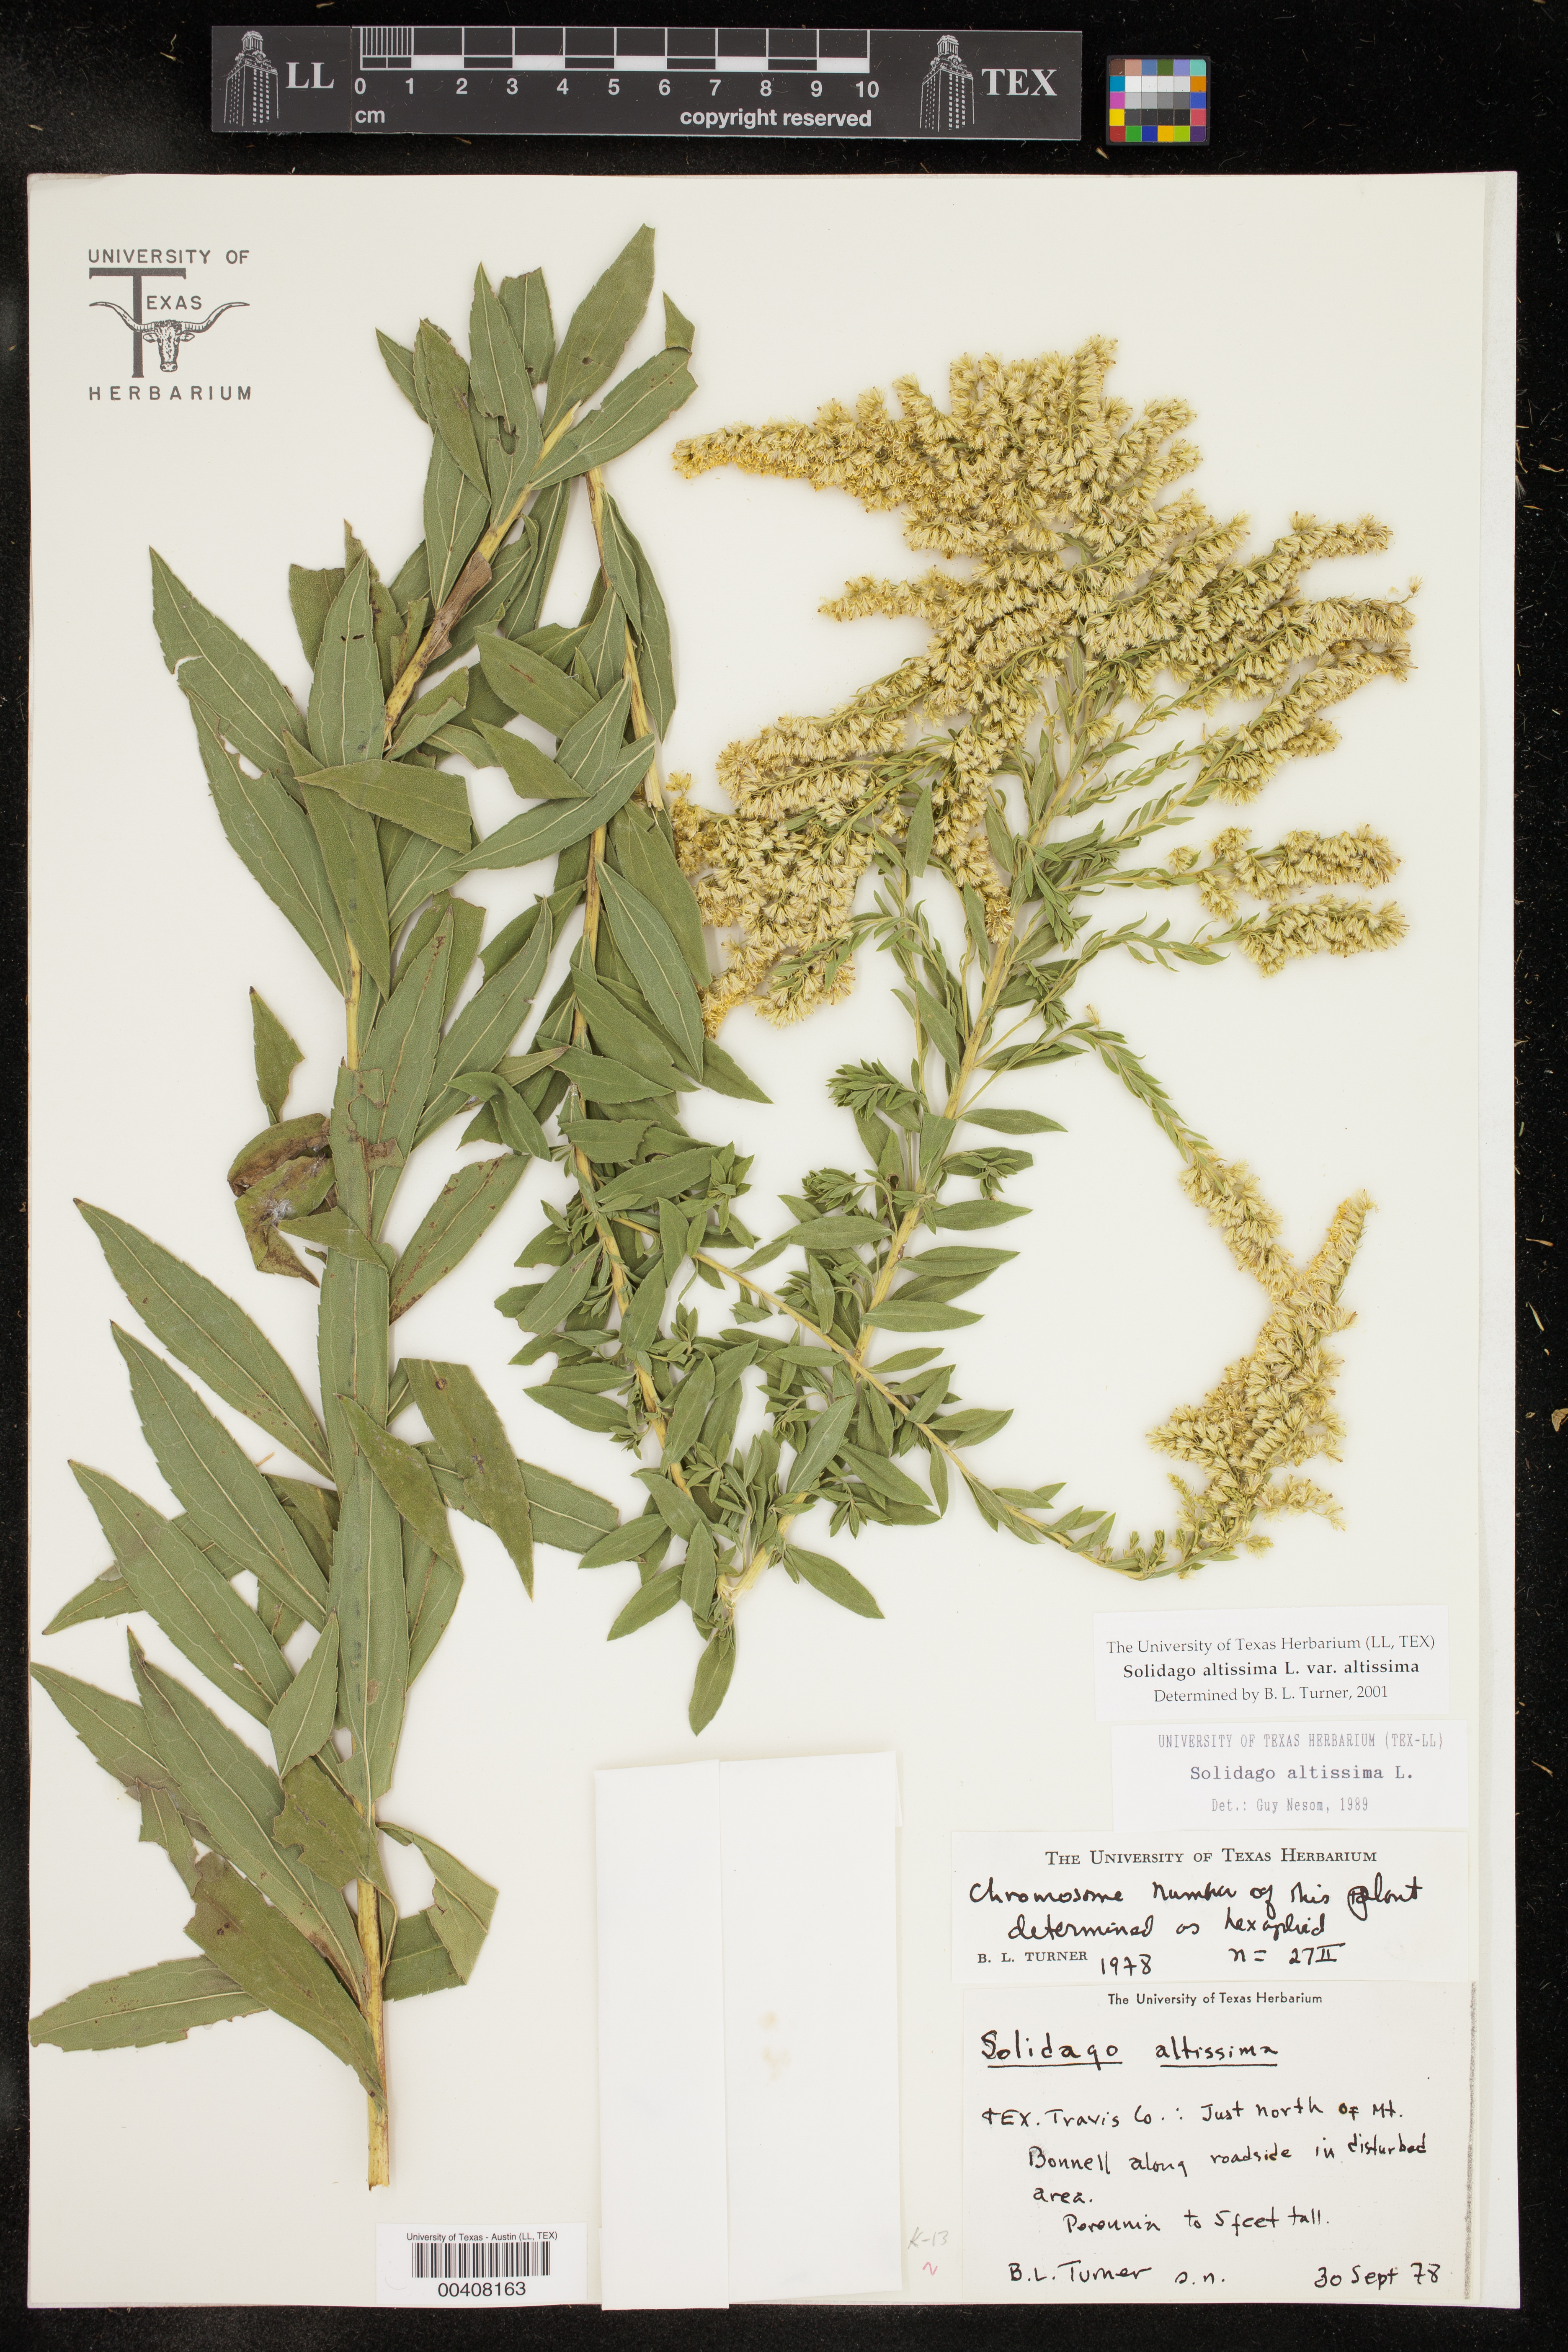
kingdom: Plantae
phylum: Tracheophyta
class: Magnoliopsida
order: Asterales
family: Asteraceae
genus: Solidago
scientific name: Solidago altissima
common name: Late goldenrod
